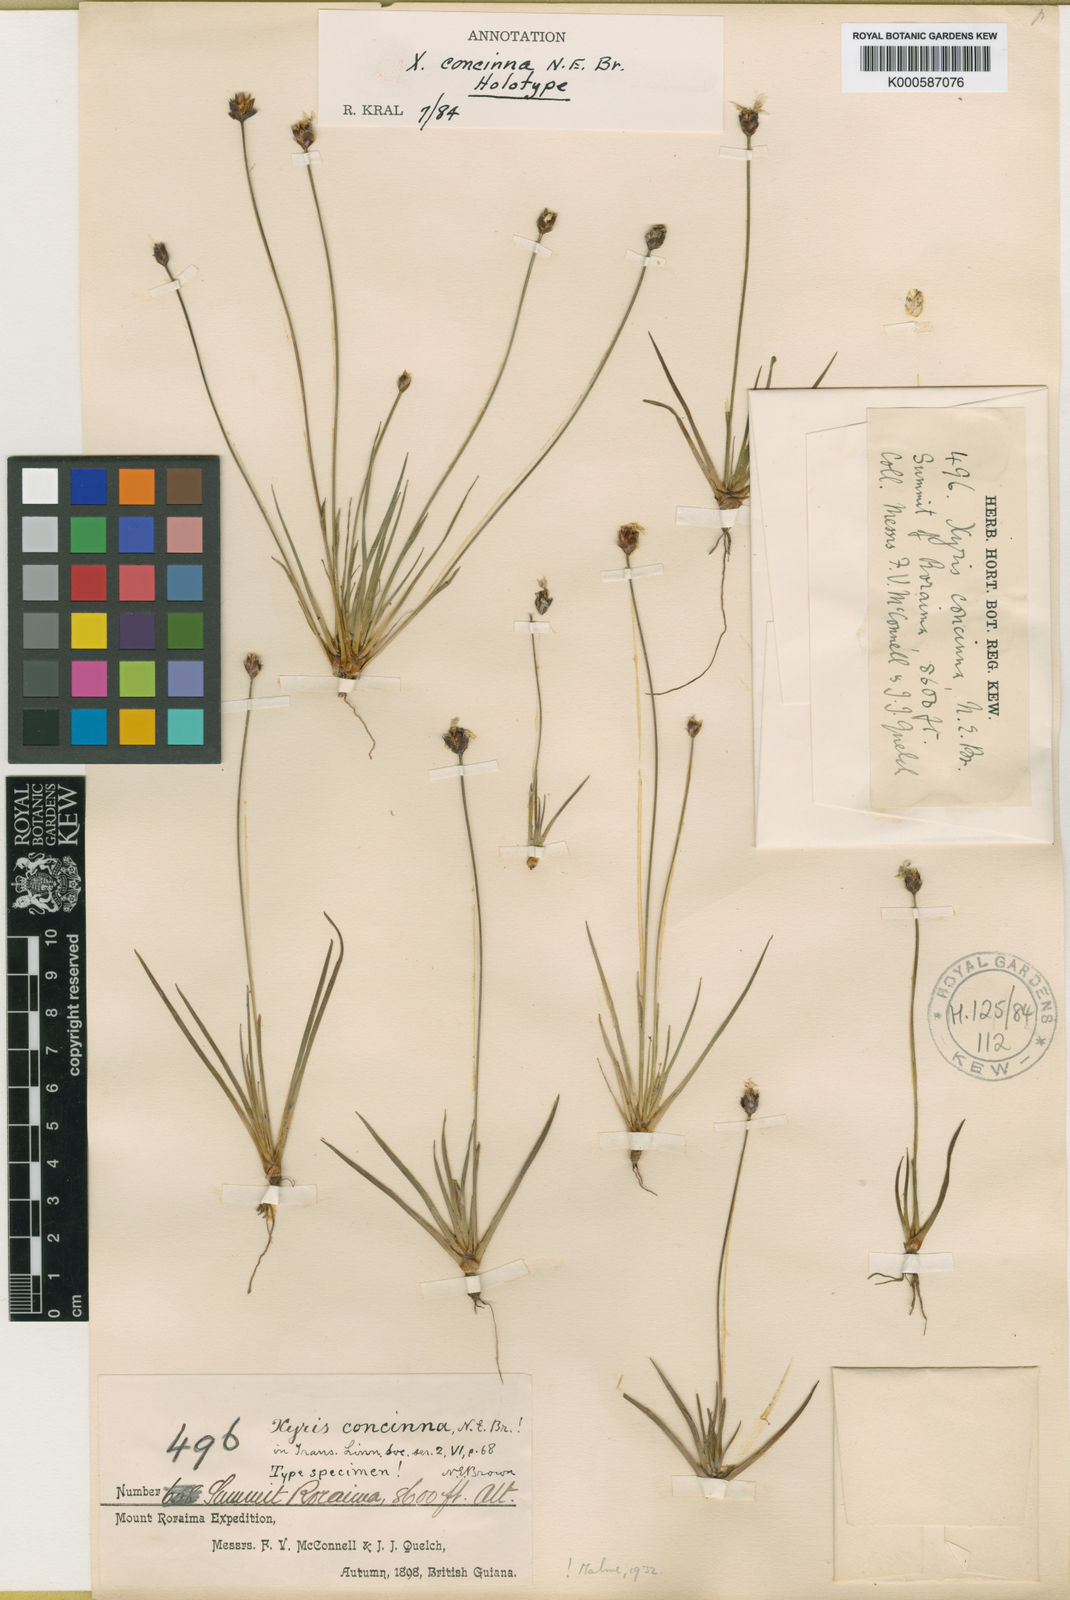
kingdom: Plantae
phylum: Tracheophyta
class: Liliopsida
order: Poales
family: Xyridaceae
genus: Xyris
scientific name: Xyris concinna
